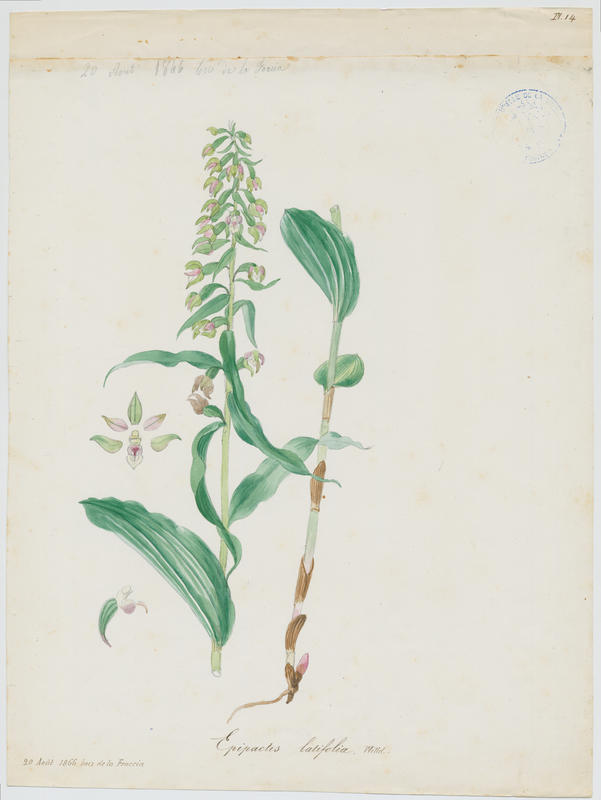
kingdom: Plantae
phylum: Tracheophyta
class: Liliopsida
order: Asparagales
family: Orchidaceae
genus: Epipactis
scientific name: Epipactis helleborine
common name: Broad-leaved helleborine
